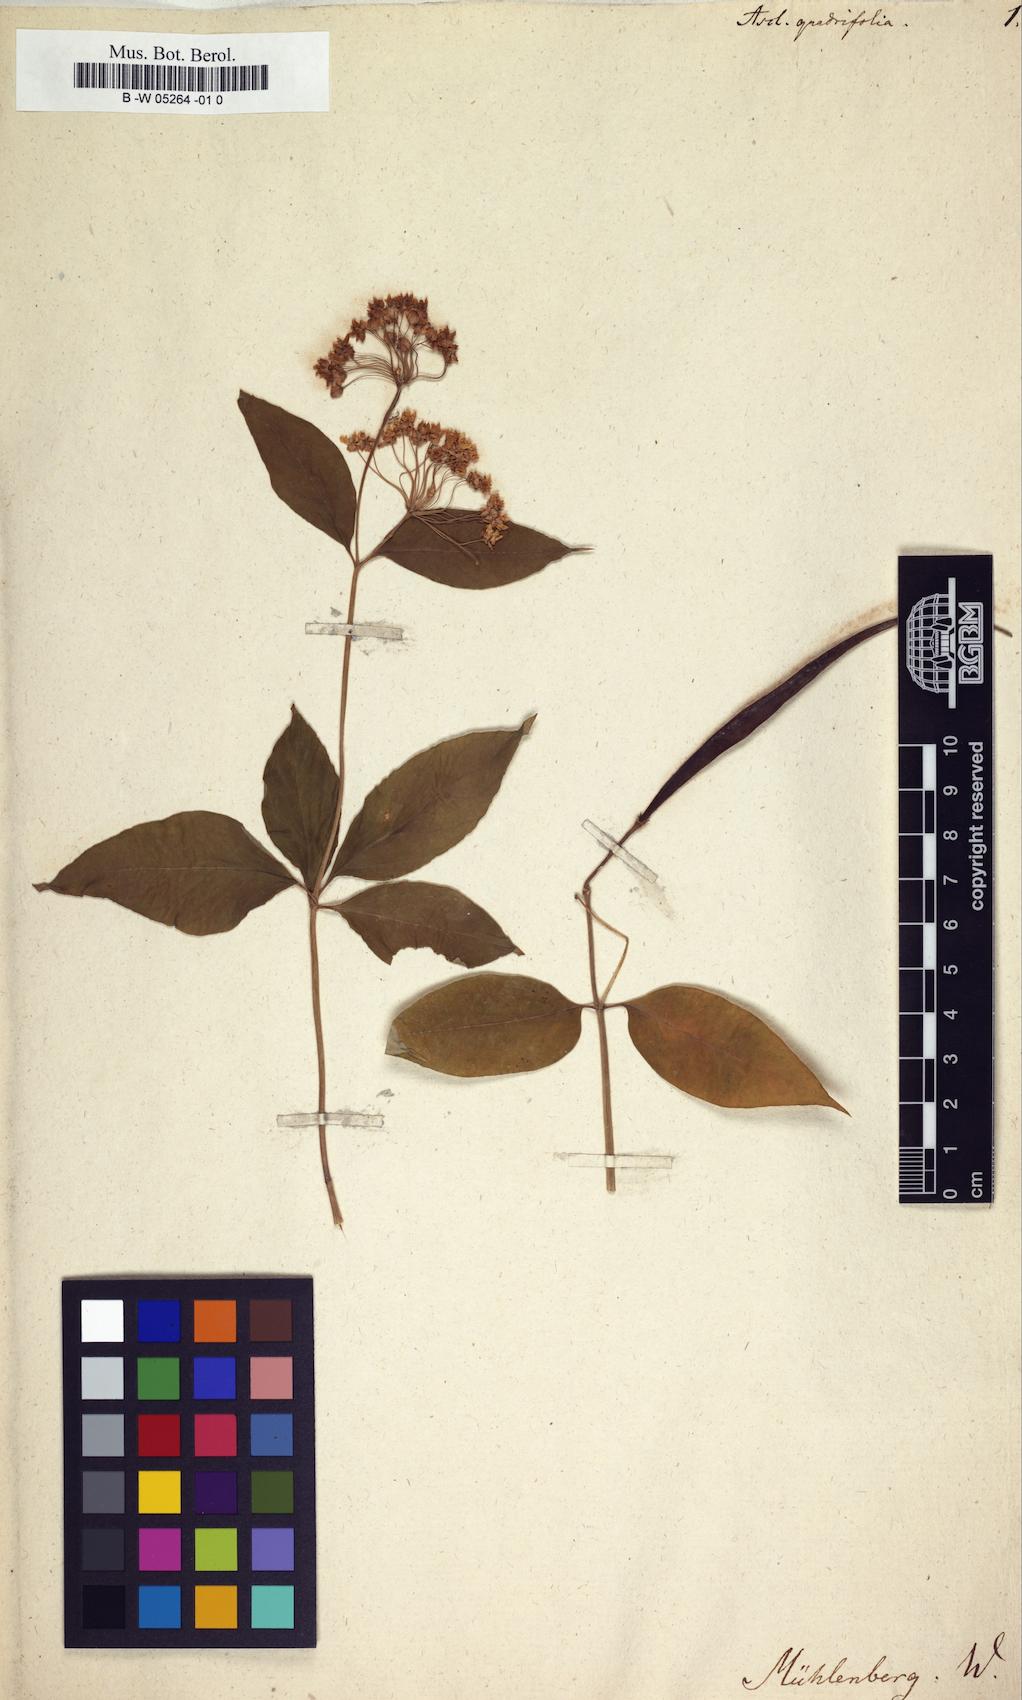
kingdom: Plantae
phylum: Tracheophyta
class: Magnoliopsida
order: Gentianales
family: Apocynaceae
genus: Asclepias
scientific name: Asclepias quadrifolia
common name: Whorled milkweed
